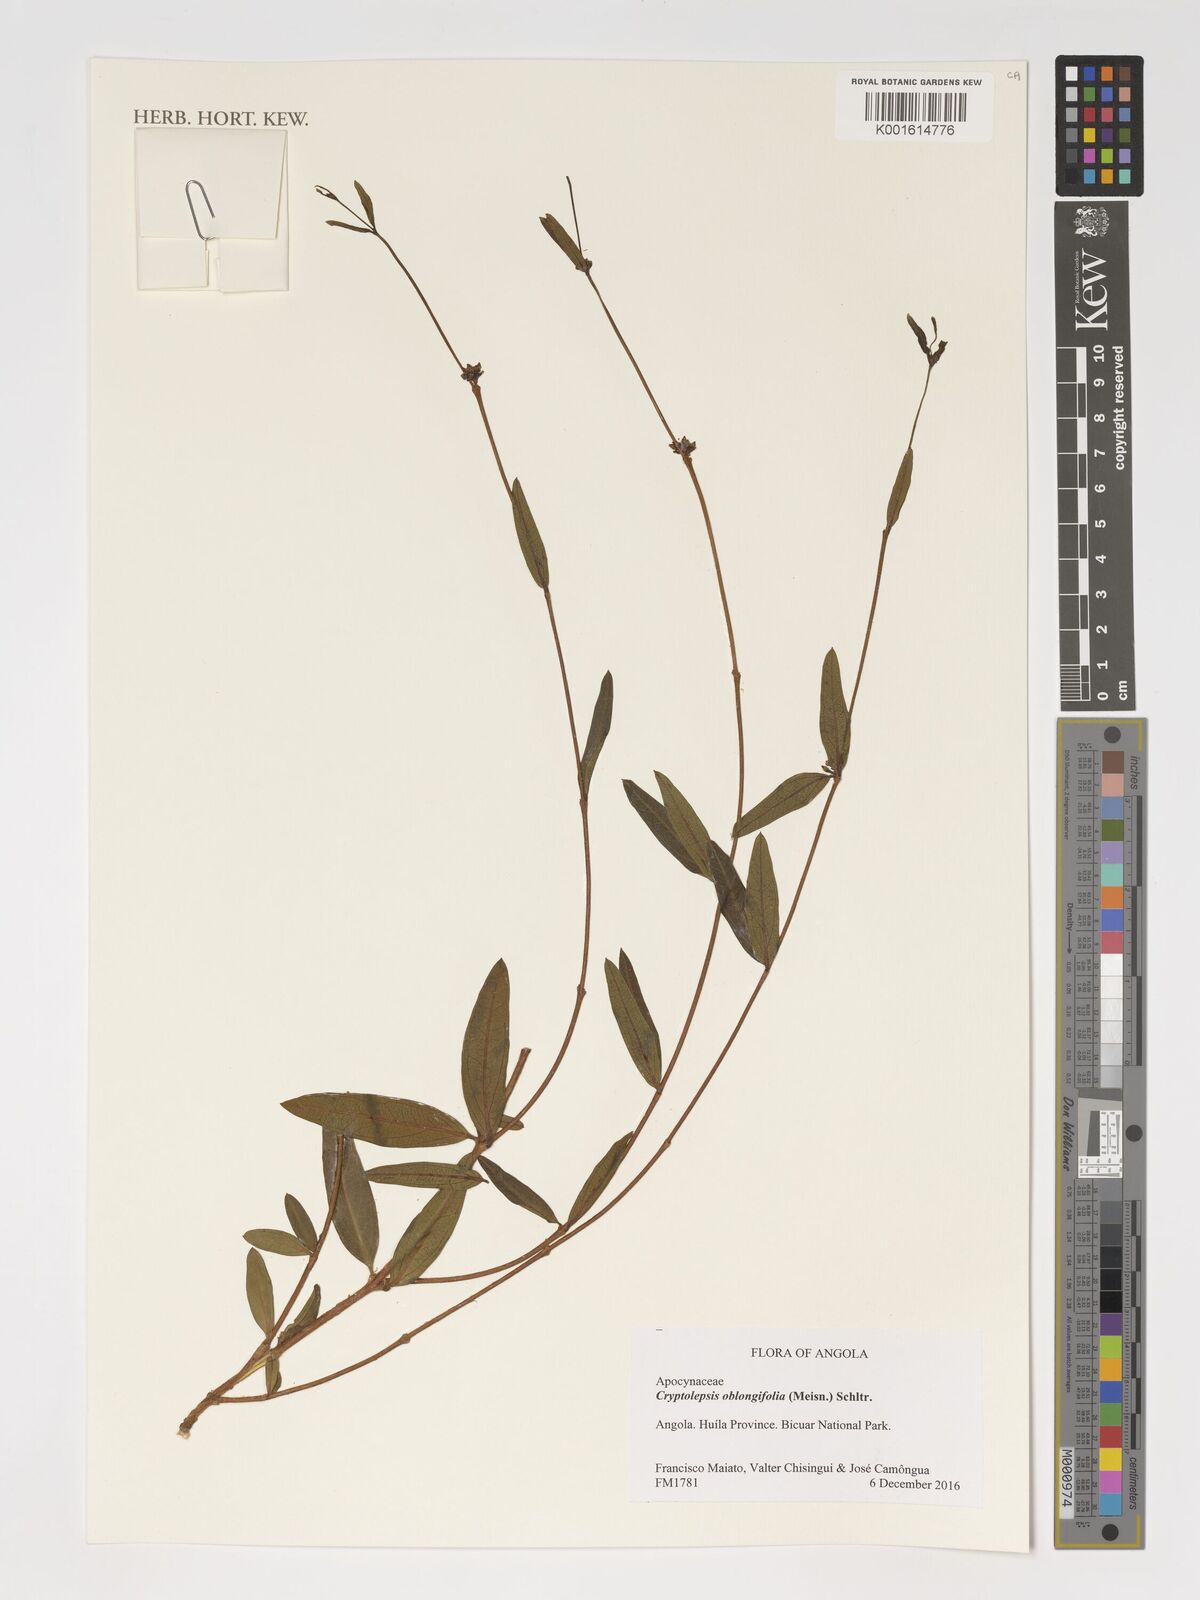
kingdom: Plantae
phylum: Tracheophyta
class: Magnoliopsida
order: Gentianales
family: Apocynaceae
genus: Cryptolepis
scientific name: Cryptolepis oblongifolia
